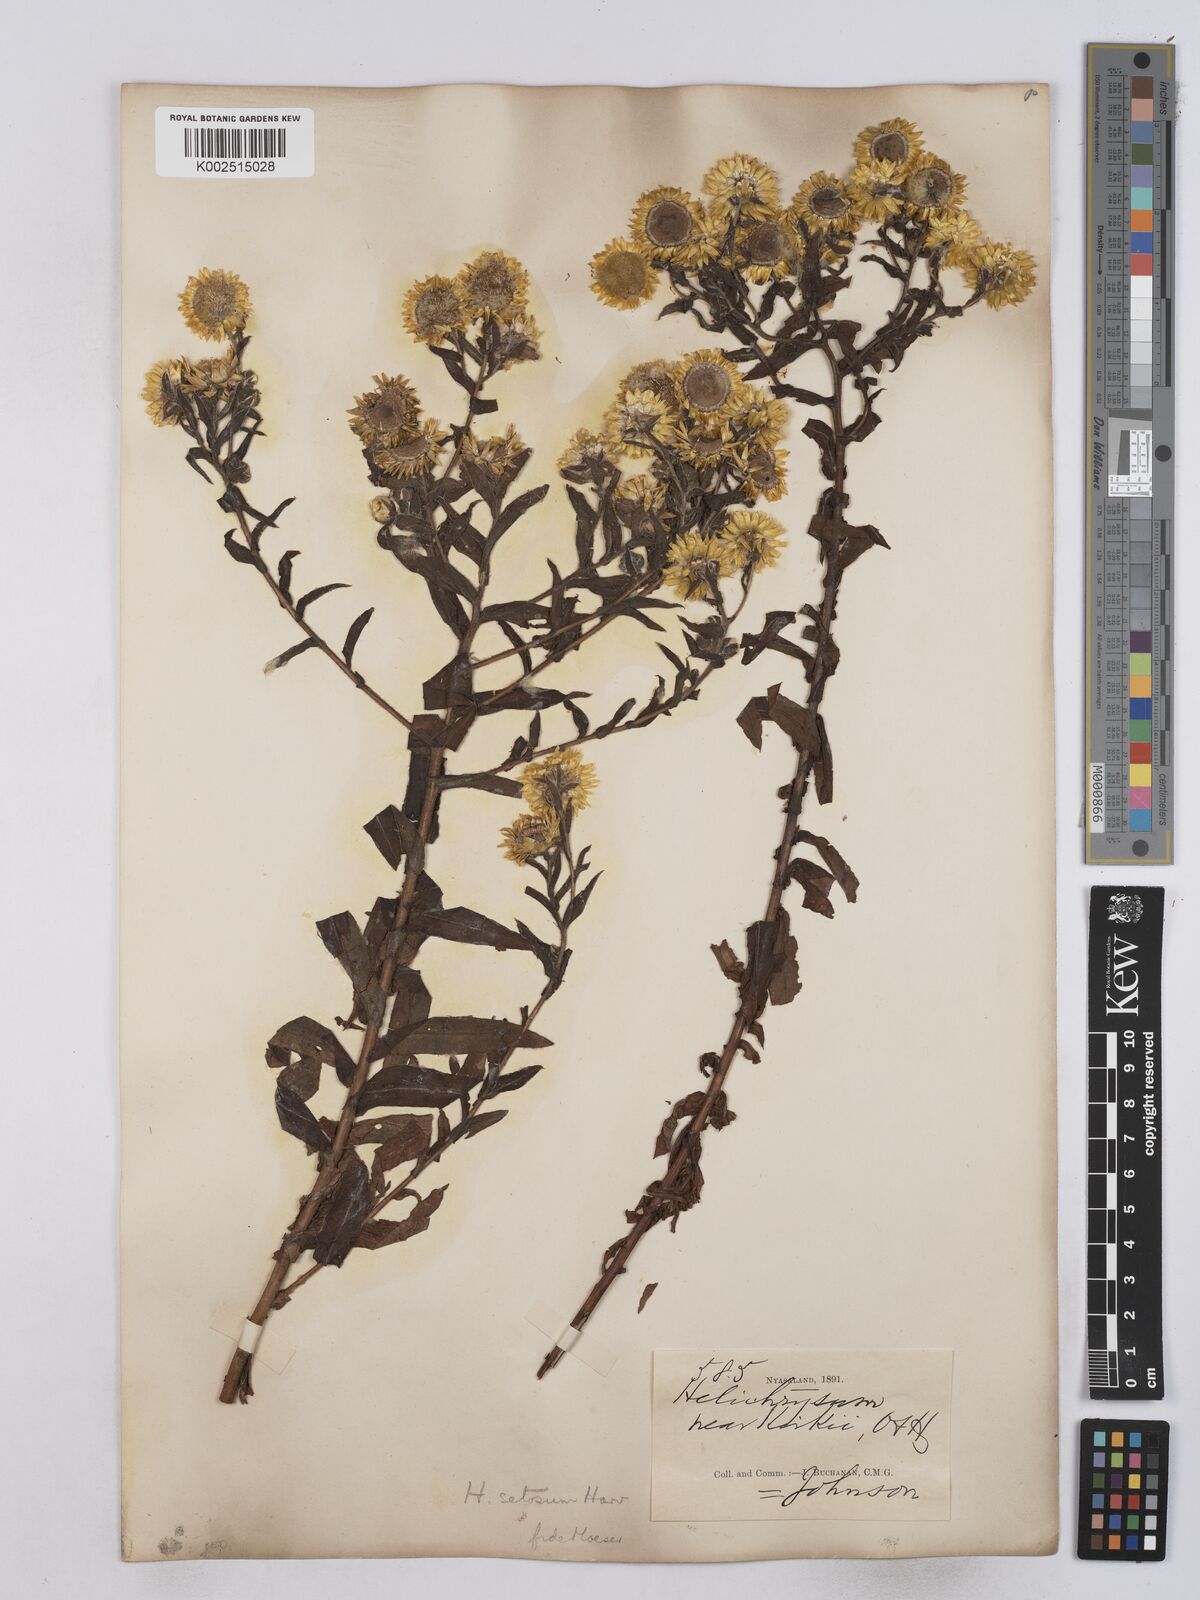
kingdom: Plantae
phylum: Tracheophyta
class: Magnoliopsida
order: Asterales
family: Asteraceae
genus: Helichrysum
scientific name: Helichrysum setosum
